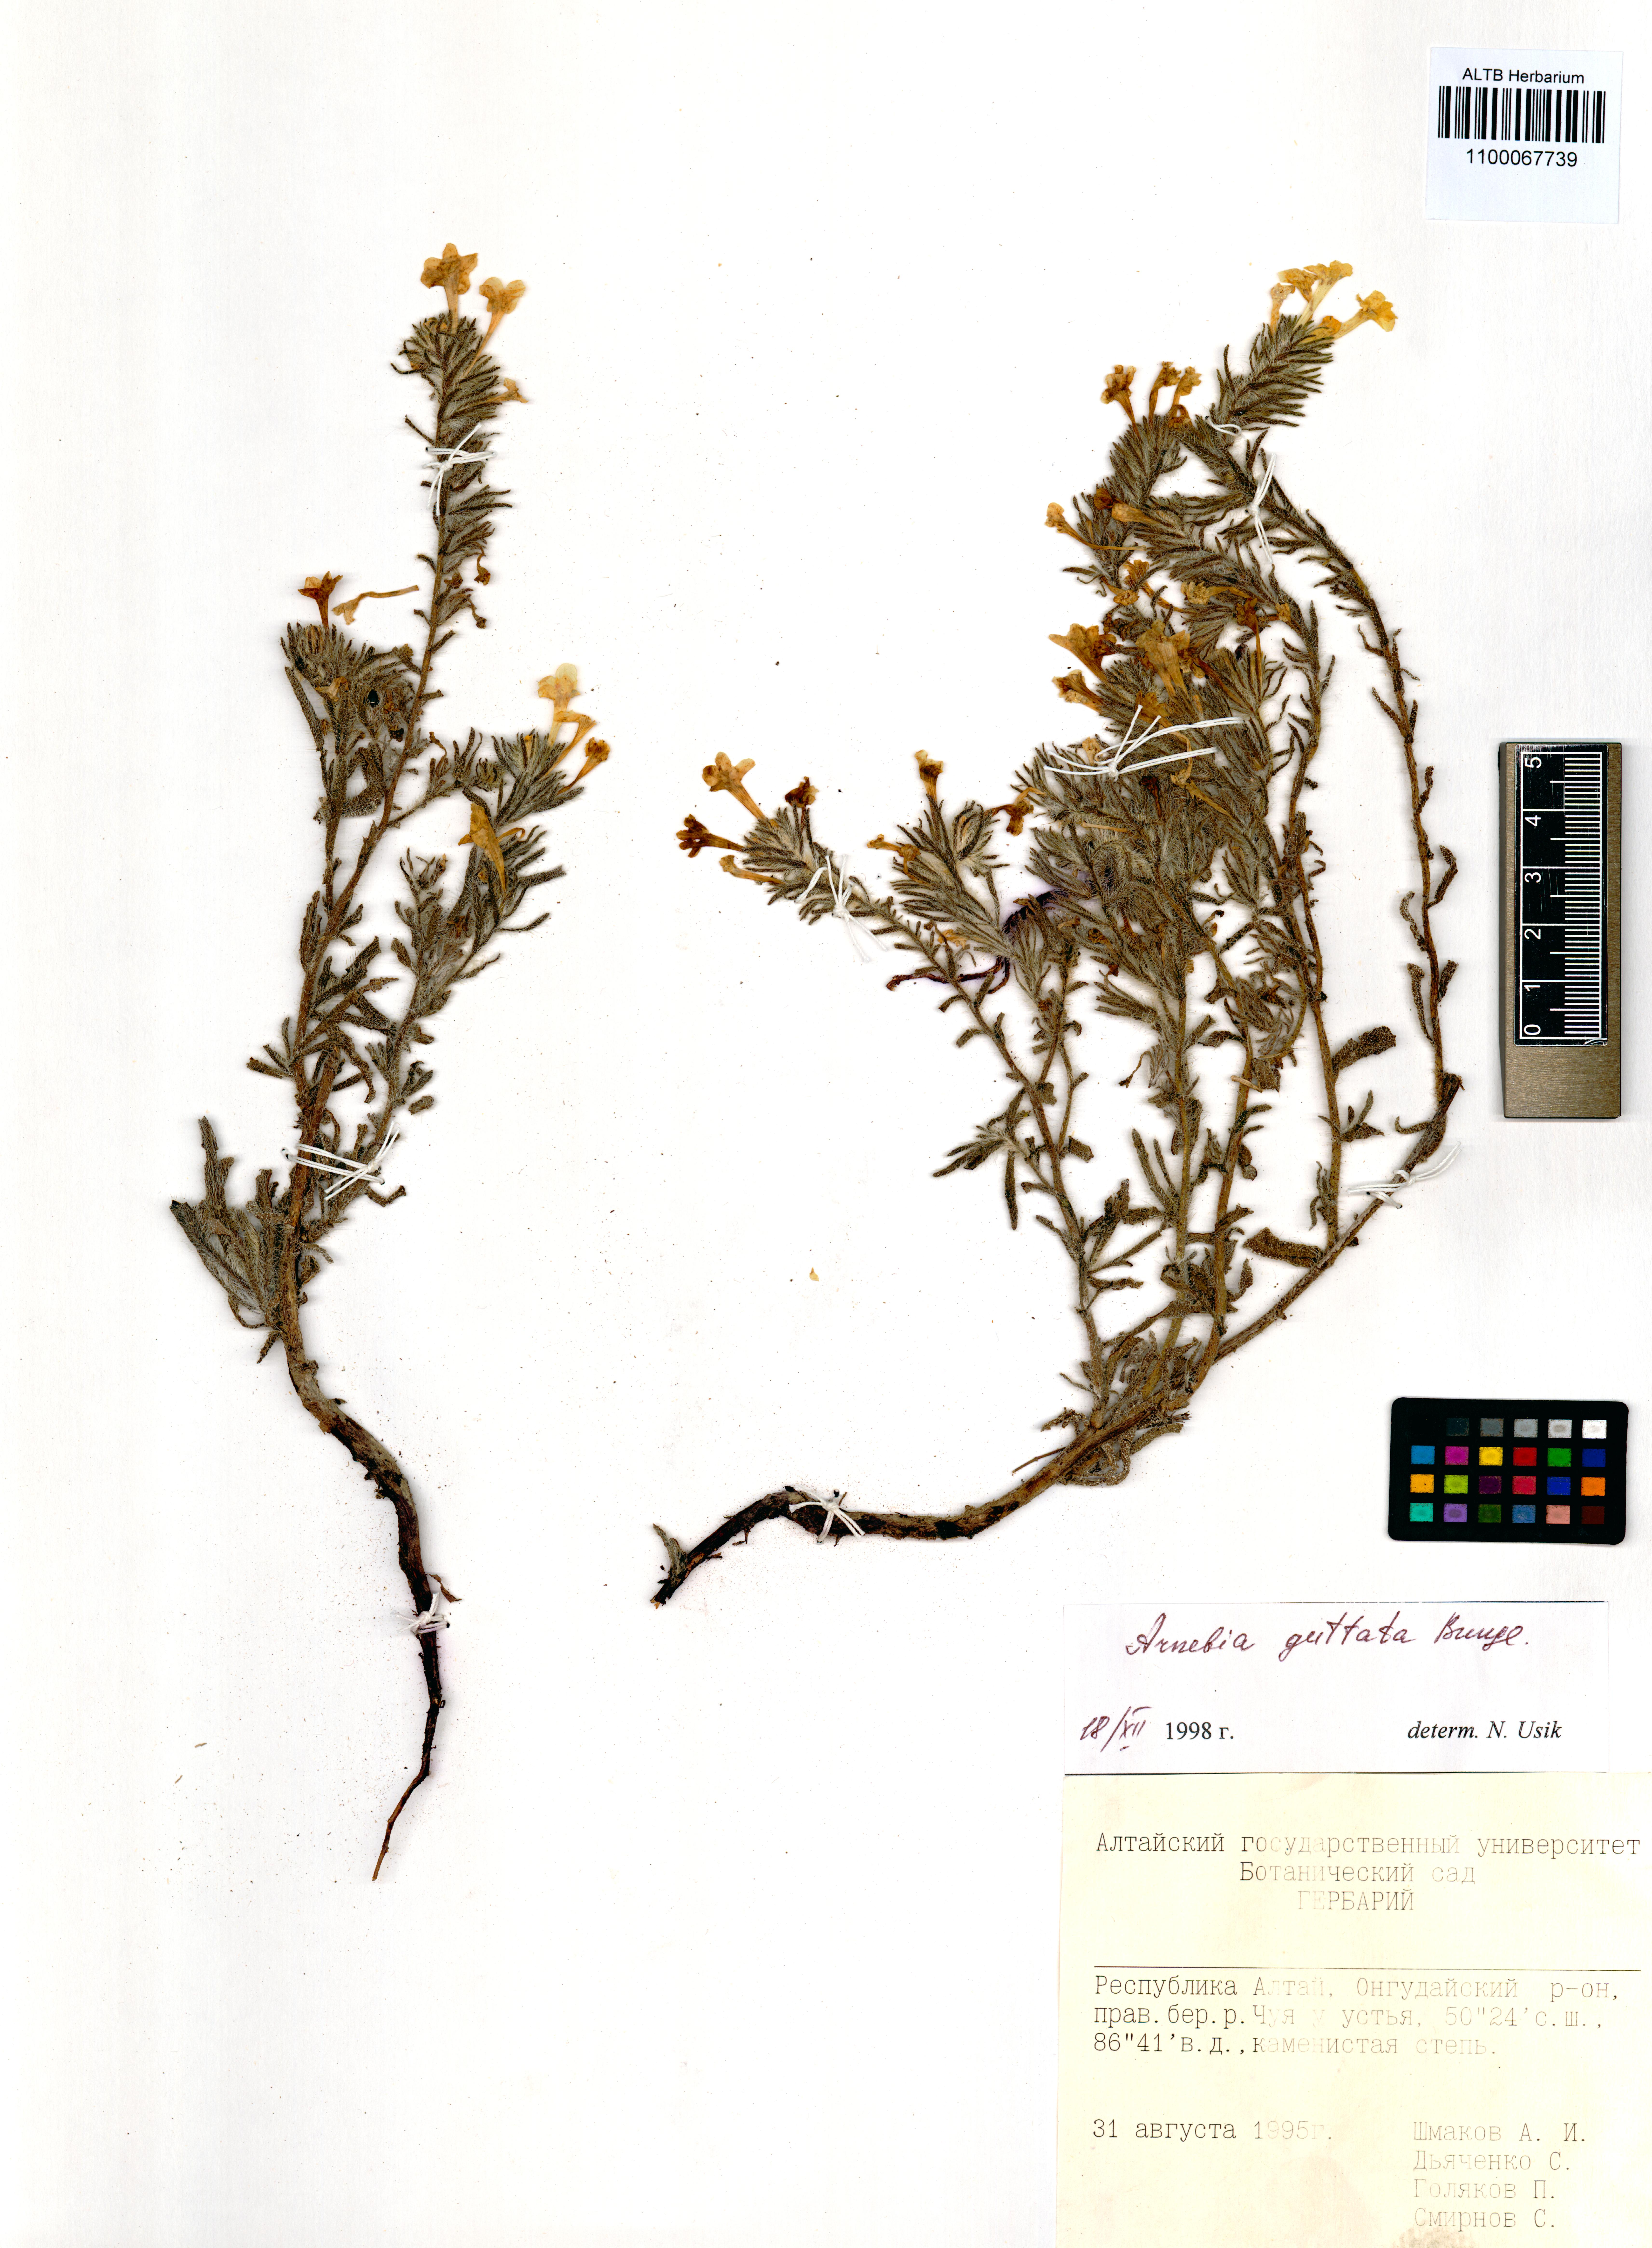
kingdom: Plantae
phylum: Tracheophyta
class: Magnoliopsida
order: Boraginales
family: Boraginaceae
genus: Arnebia
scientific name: Arnebia guttata
